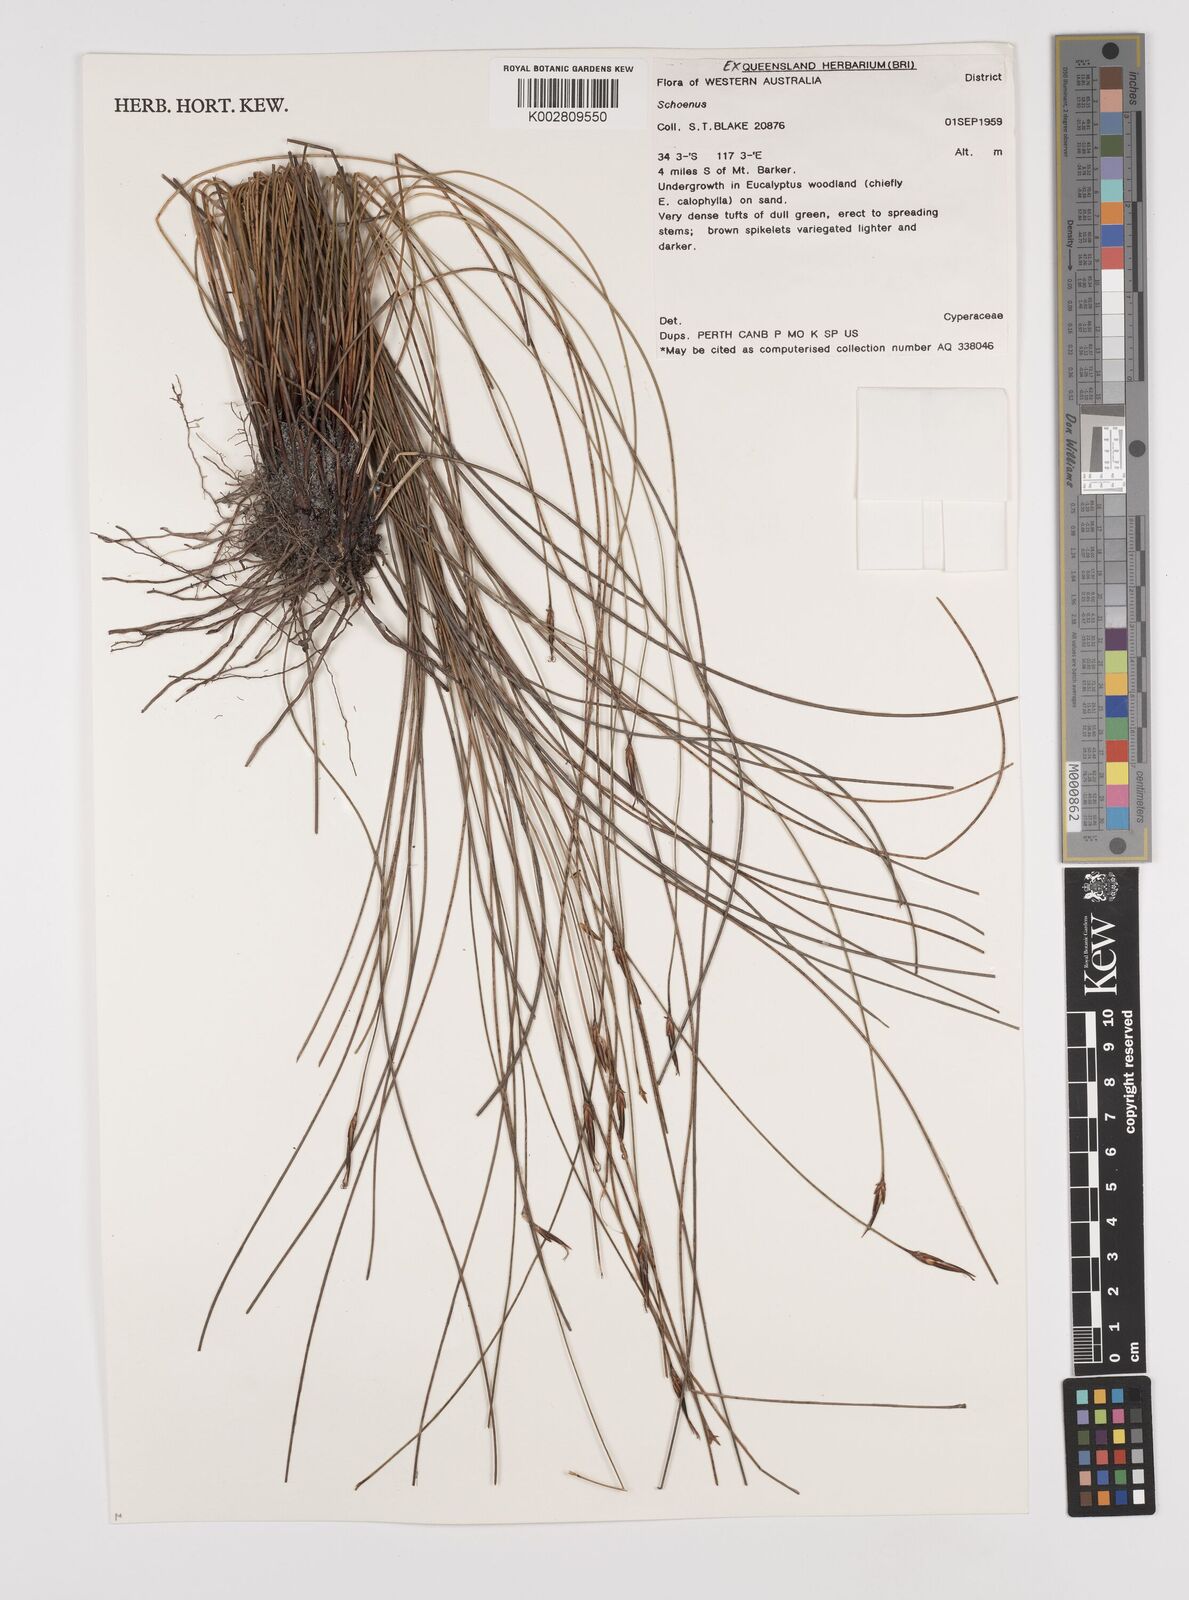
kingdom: Plantae
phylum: Tracheophyta
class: Liliopsida
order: Poales
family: Cyperaceae
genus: Schoenus
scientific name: Schoenus
